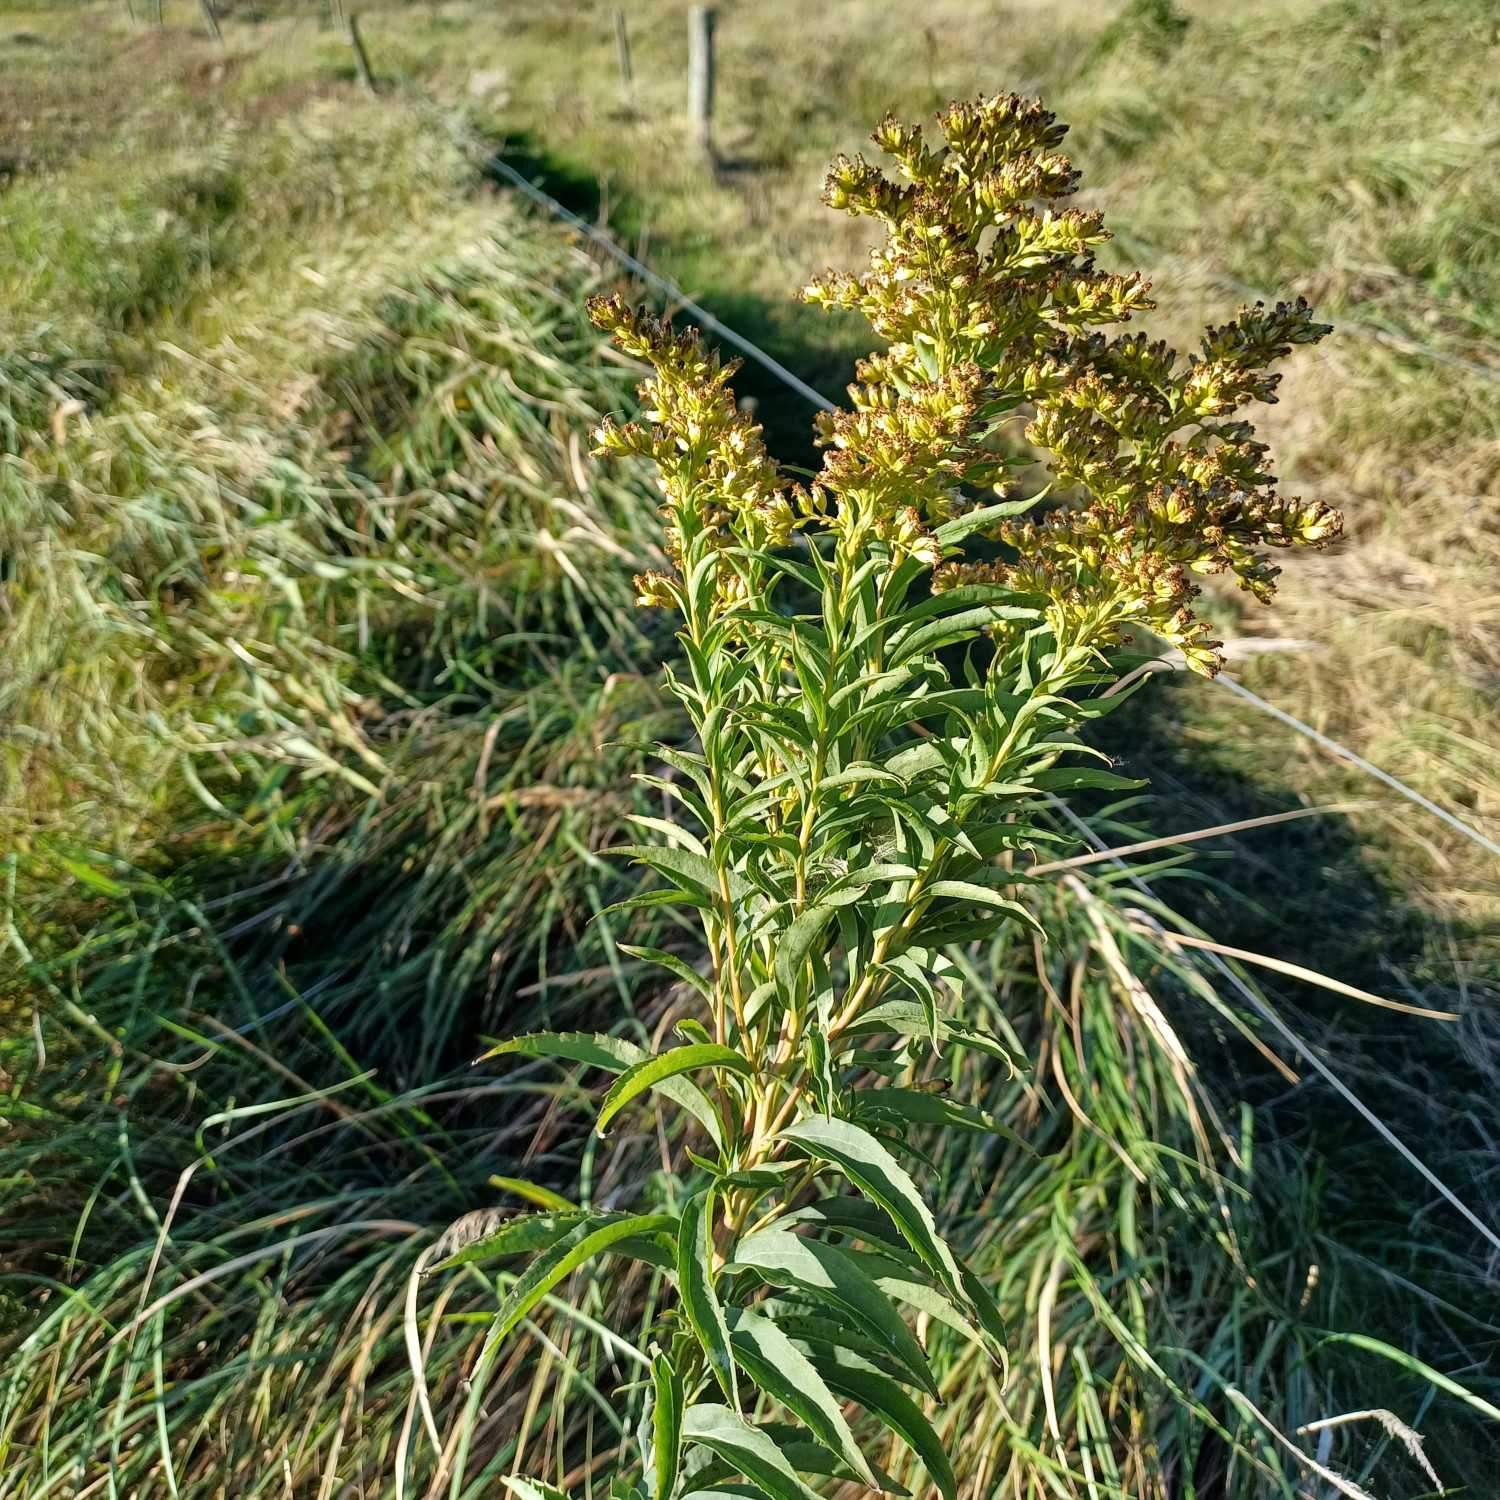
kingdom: Plantae
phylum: Tracheophyta
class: Magnoliopsida
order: Asterales
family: Asteraceae
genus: Solidago
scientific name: Solidago gigantea
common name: Sildig gyldenris
